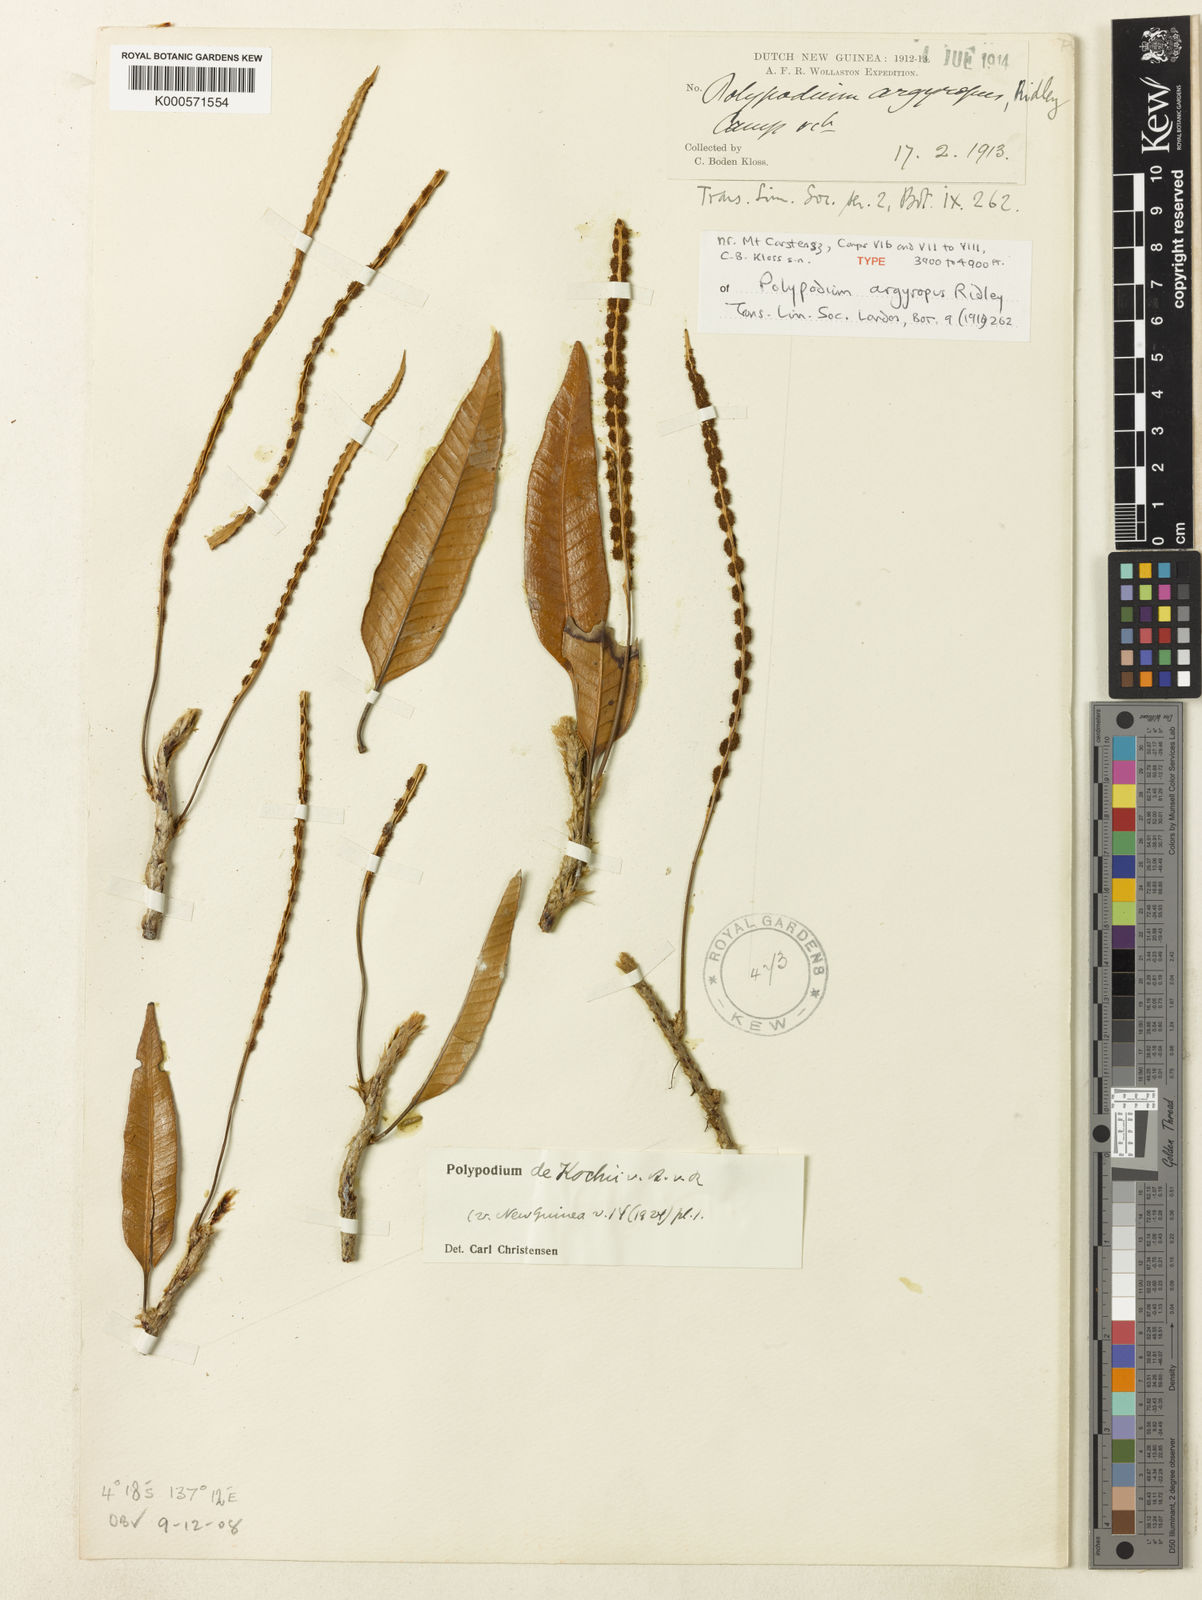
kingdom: Plantae
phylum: Tracheophyta
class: Polypodiopsida
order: Polypodiales
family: Polypodiaceae
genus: Selliguea
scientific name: Selliguea
